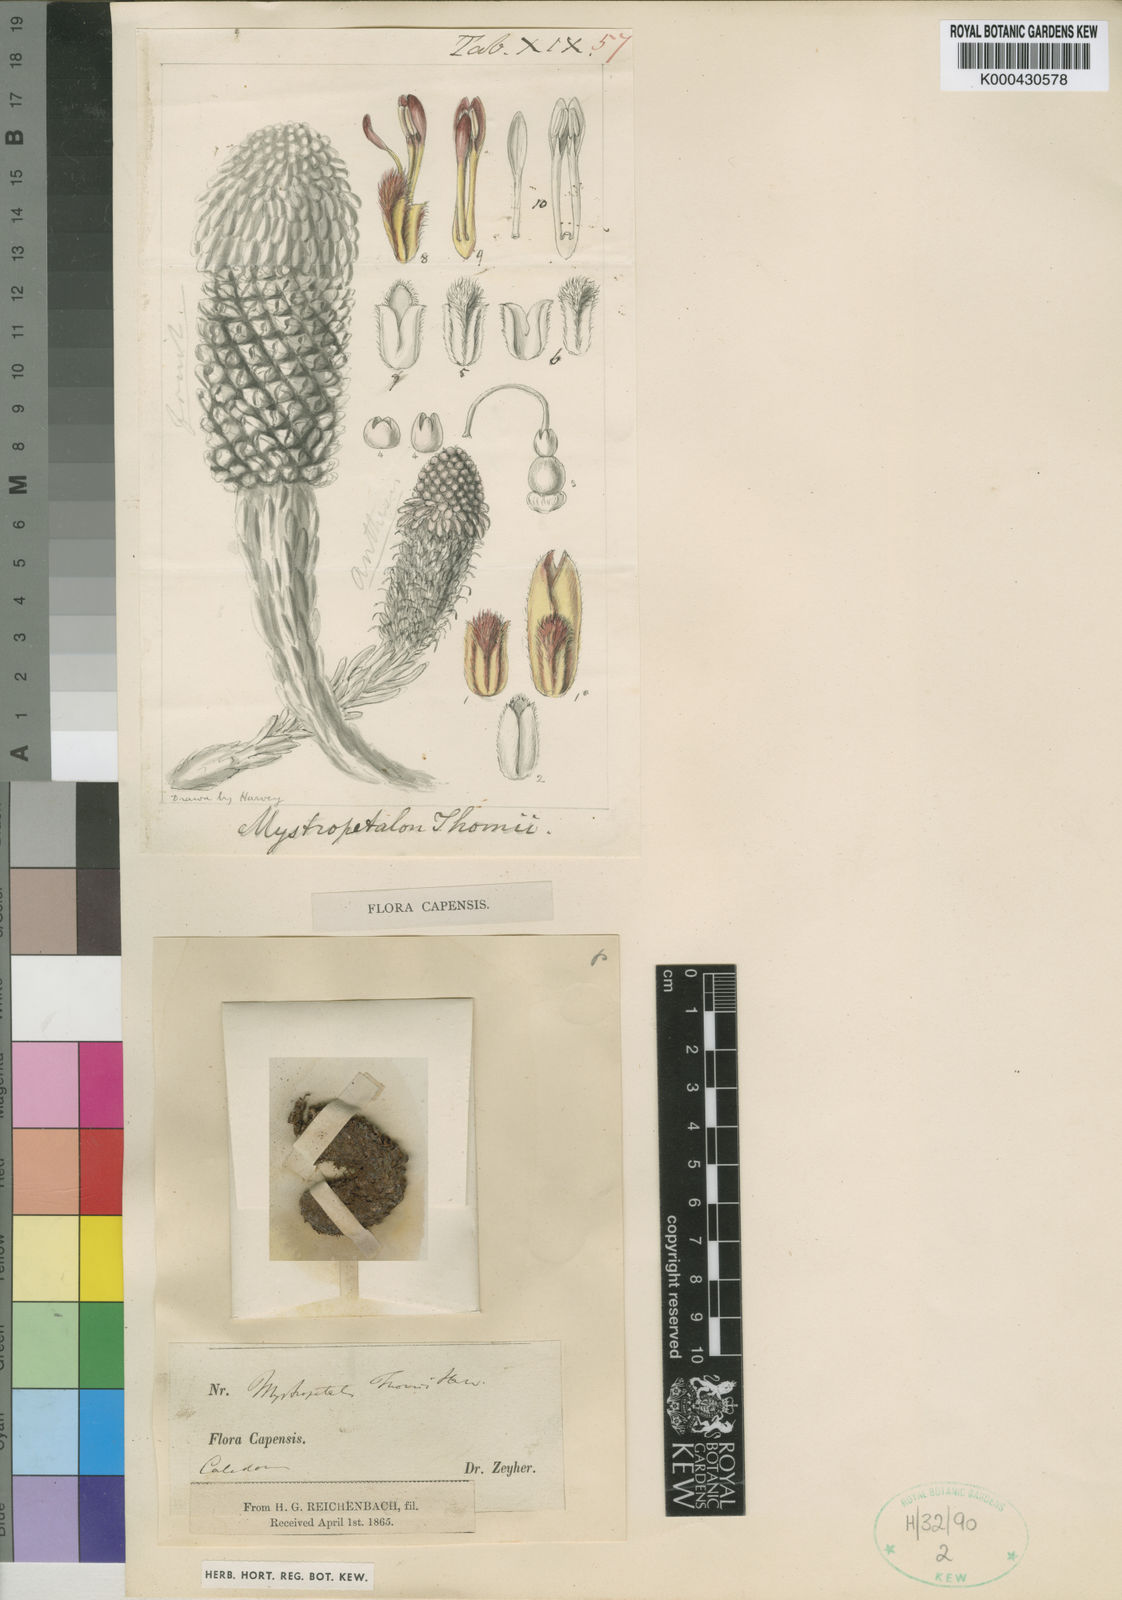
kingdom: Plantae
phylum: Tracheophyta
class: Magnoliopsida
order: Santalales
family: Mystropetalaceae
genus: Mystropetalon
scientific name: Mystropetalon thomii
